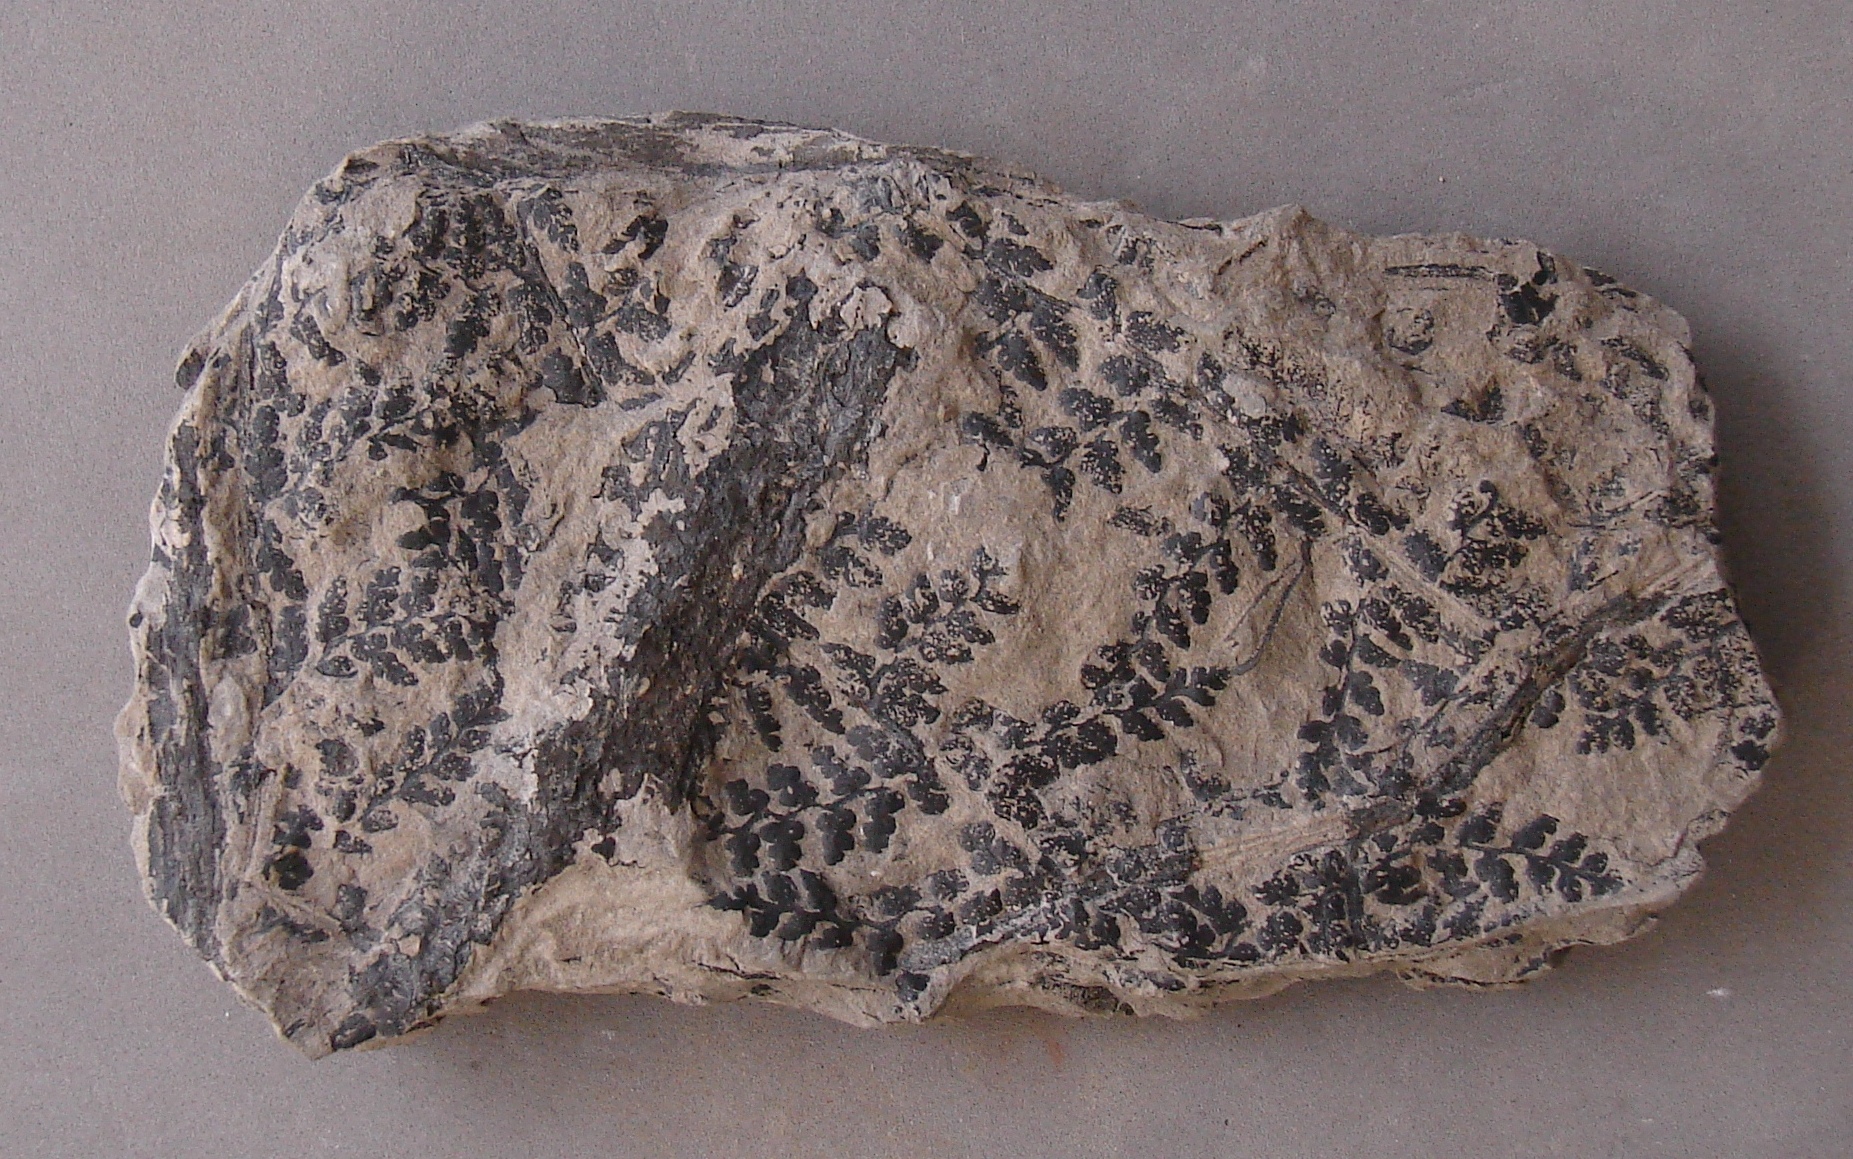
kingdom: Plantae
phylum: Tracheophyta
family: Lyginopteridaceae
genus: Sphenopteris
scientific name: Sphenopteris
